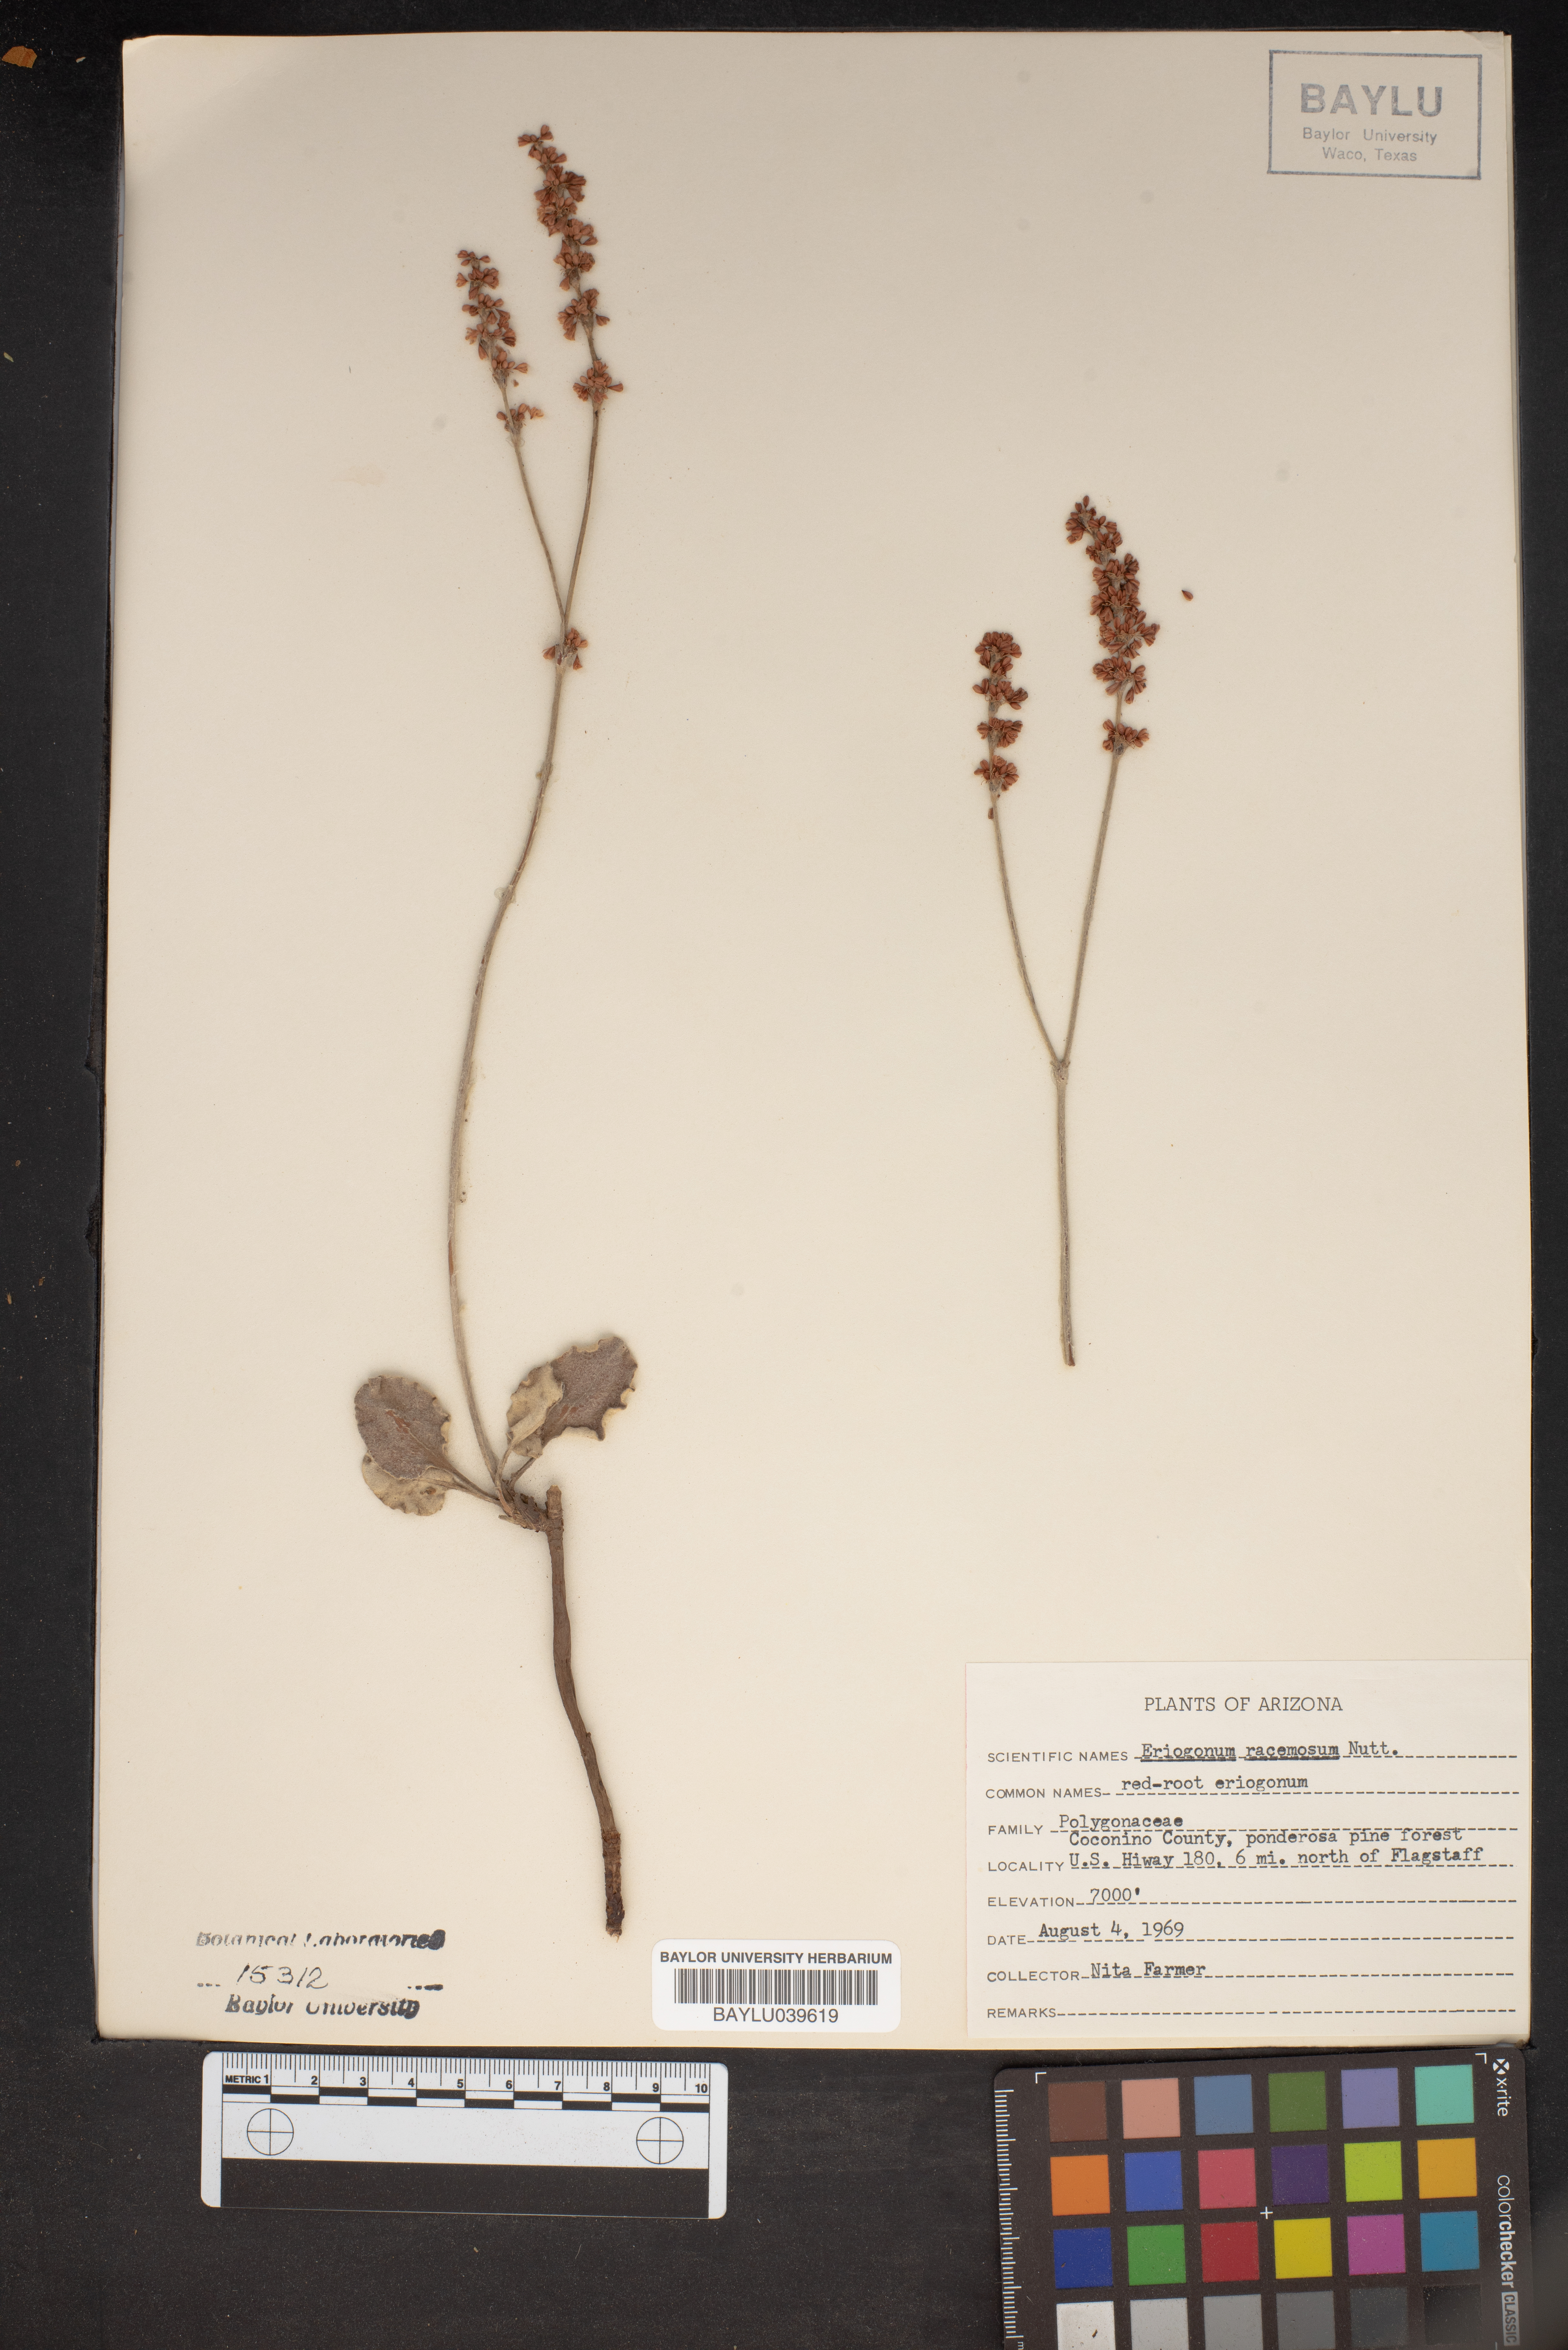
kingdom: Plantae
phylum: Tracheophyta
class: Magnoliopsida
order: Caryophyllales
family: Polygonaceae
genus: Eriogonum
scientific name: Eriogonum racemosum
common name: Redroot wild buckwheat
